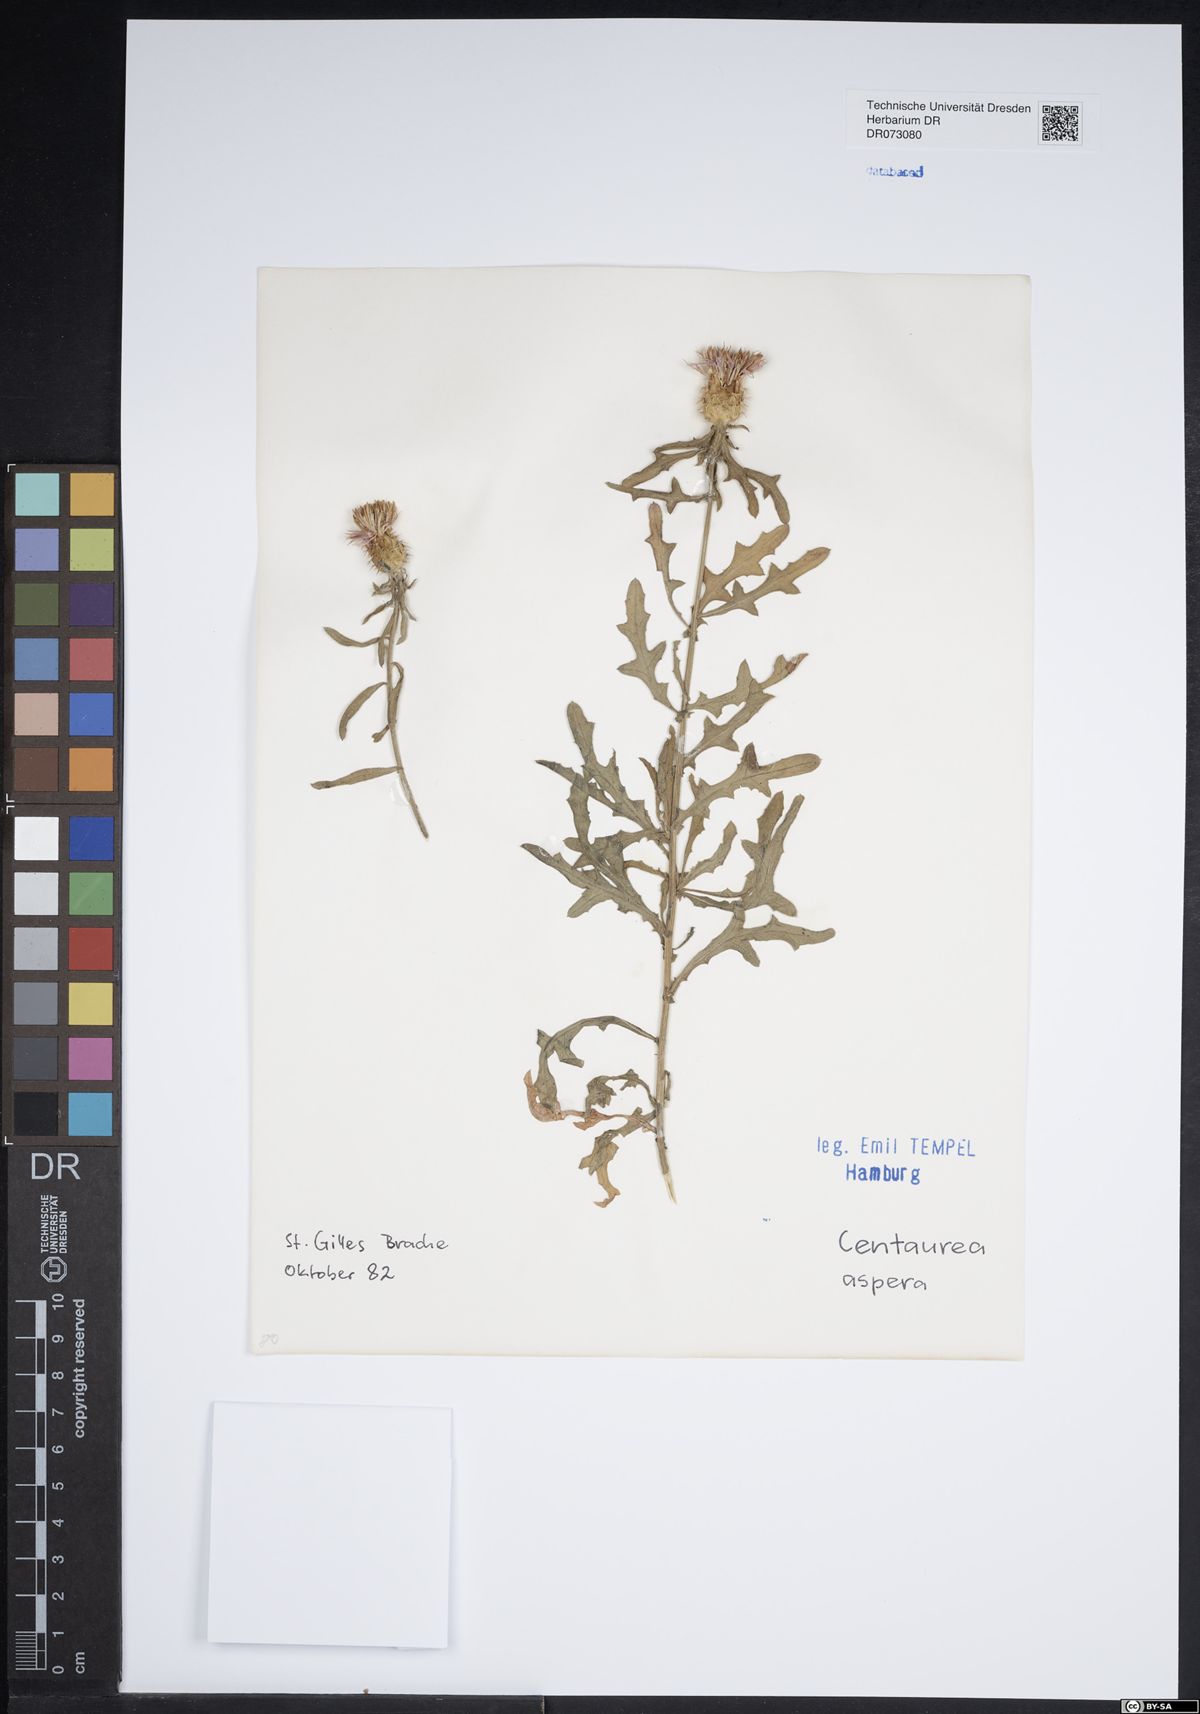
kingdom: Plantae
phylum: Tracheophyta
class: Magnoliopsida
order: Asterales
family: Asteraceae
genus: Jacobaea
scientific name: Jacobaea maritima
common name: Silver ragwort
